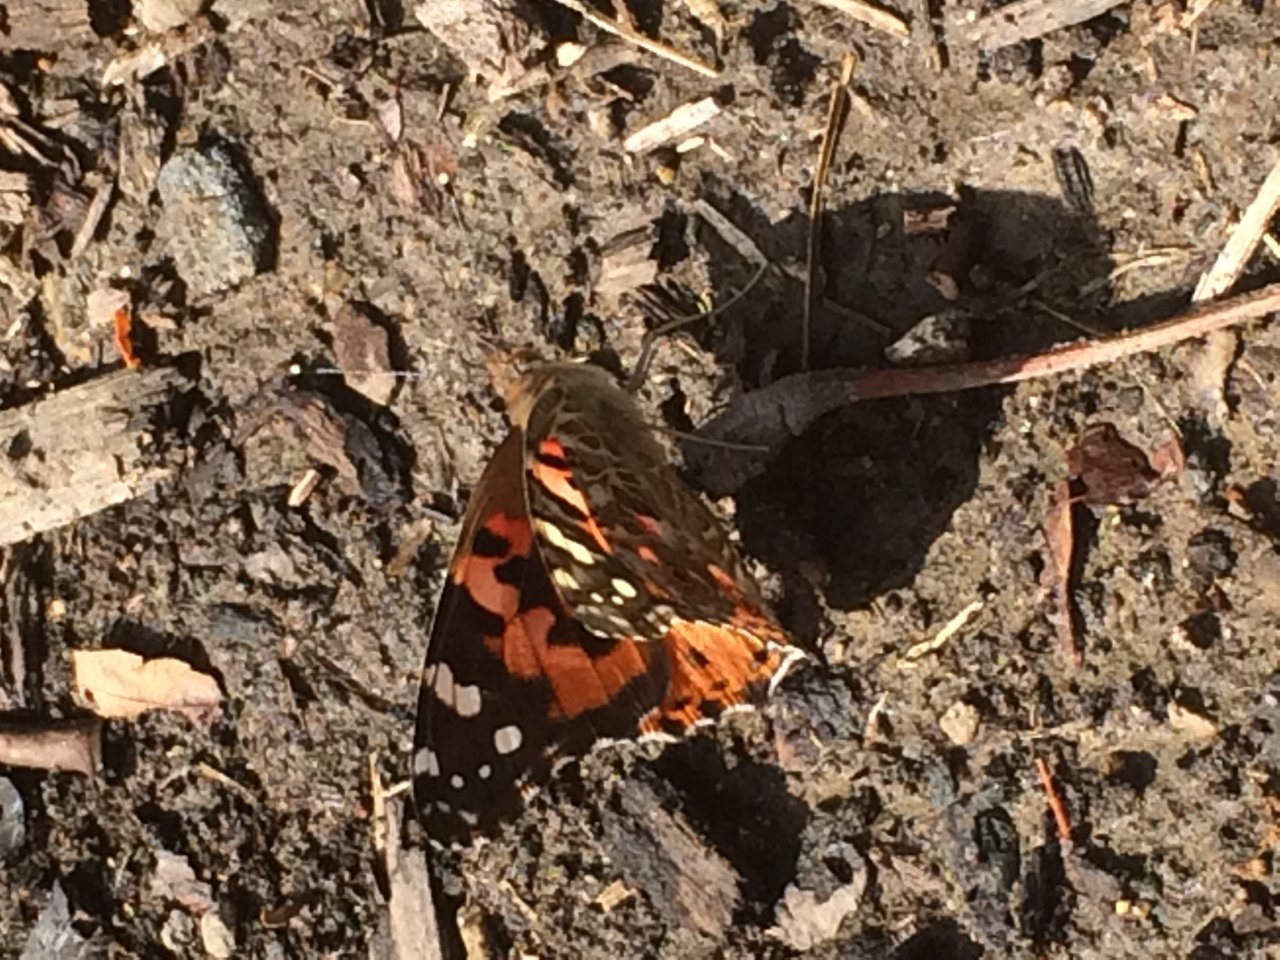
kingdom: Animalia
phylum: Arthropoda
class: Insecta
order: Lepidoptera
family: Nymphalidae
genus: Vanessa
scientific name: Vanessa cardui
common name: Painted Lady
